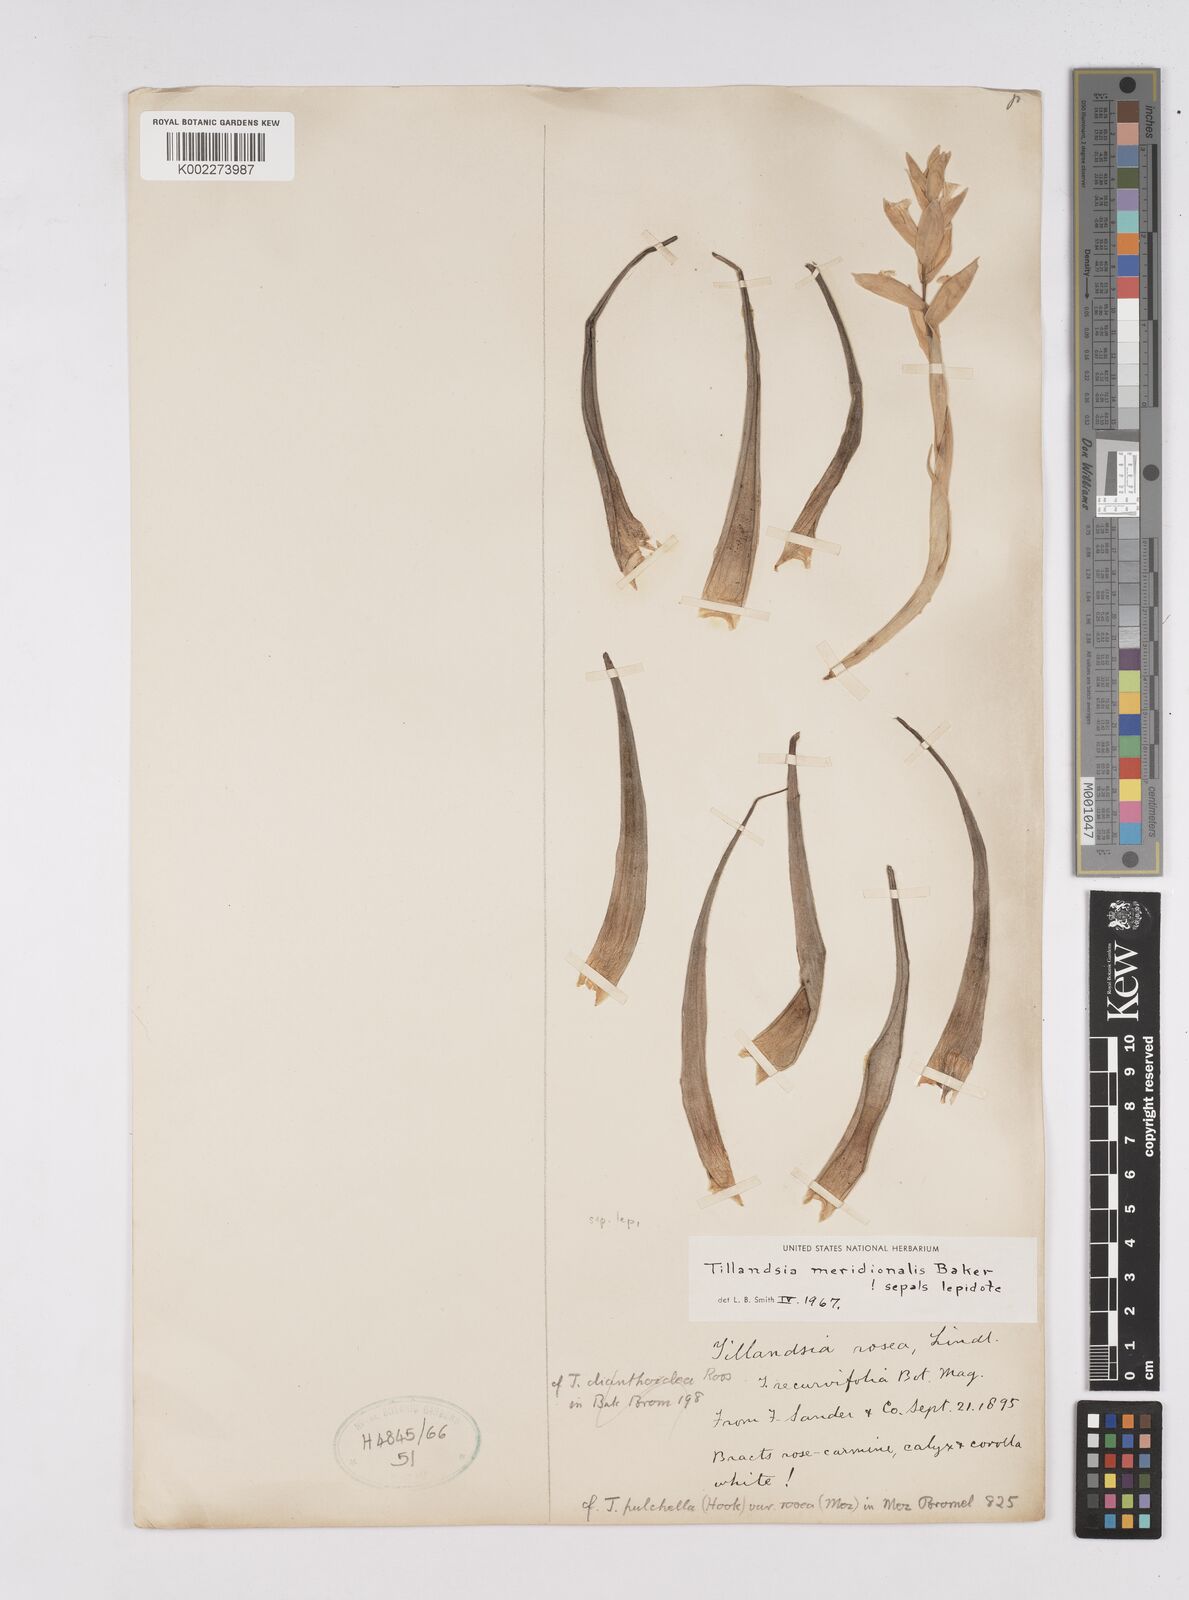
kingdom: Plantae
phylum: Tracheophyta
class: Liliopsida
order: Poales
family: Bromeliaceae
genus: Tillandsia
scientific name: Tillandsia recurvifolia
